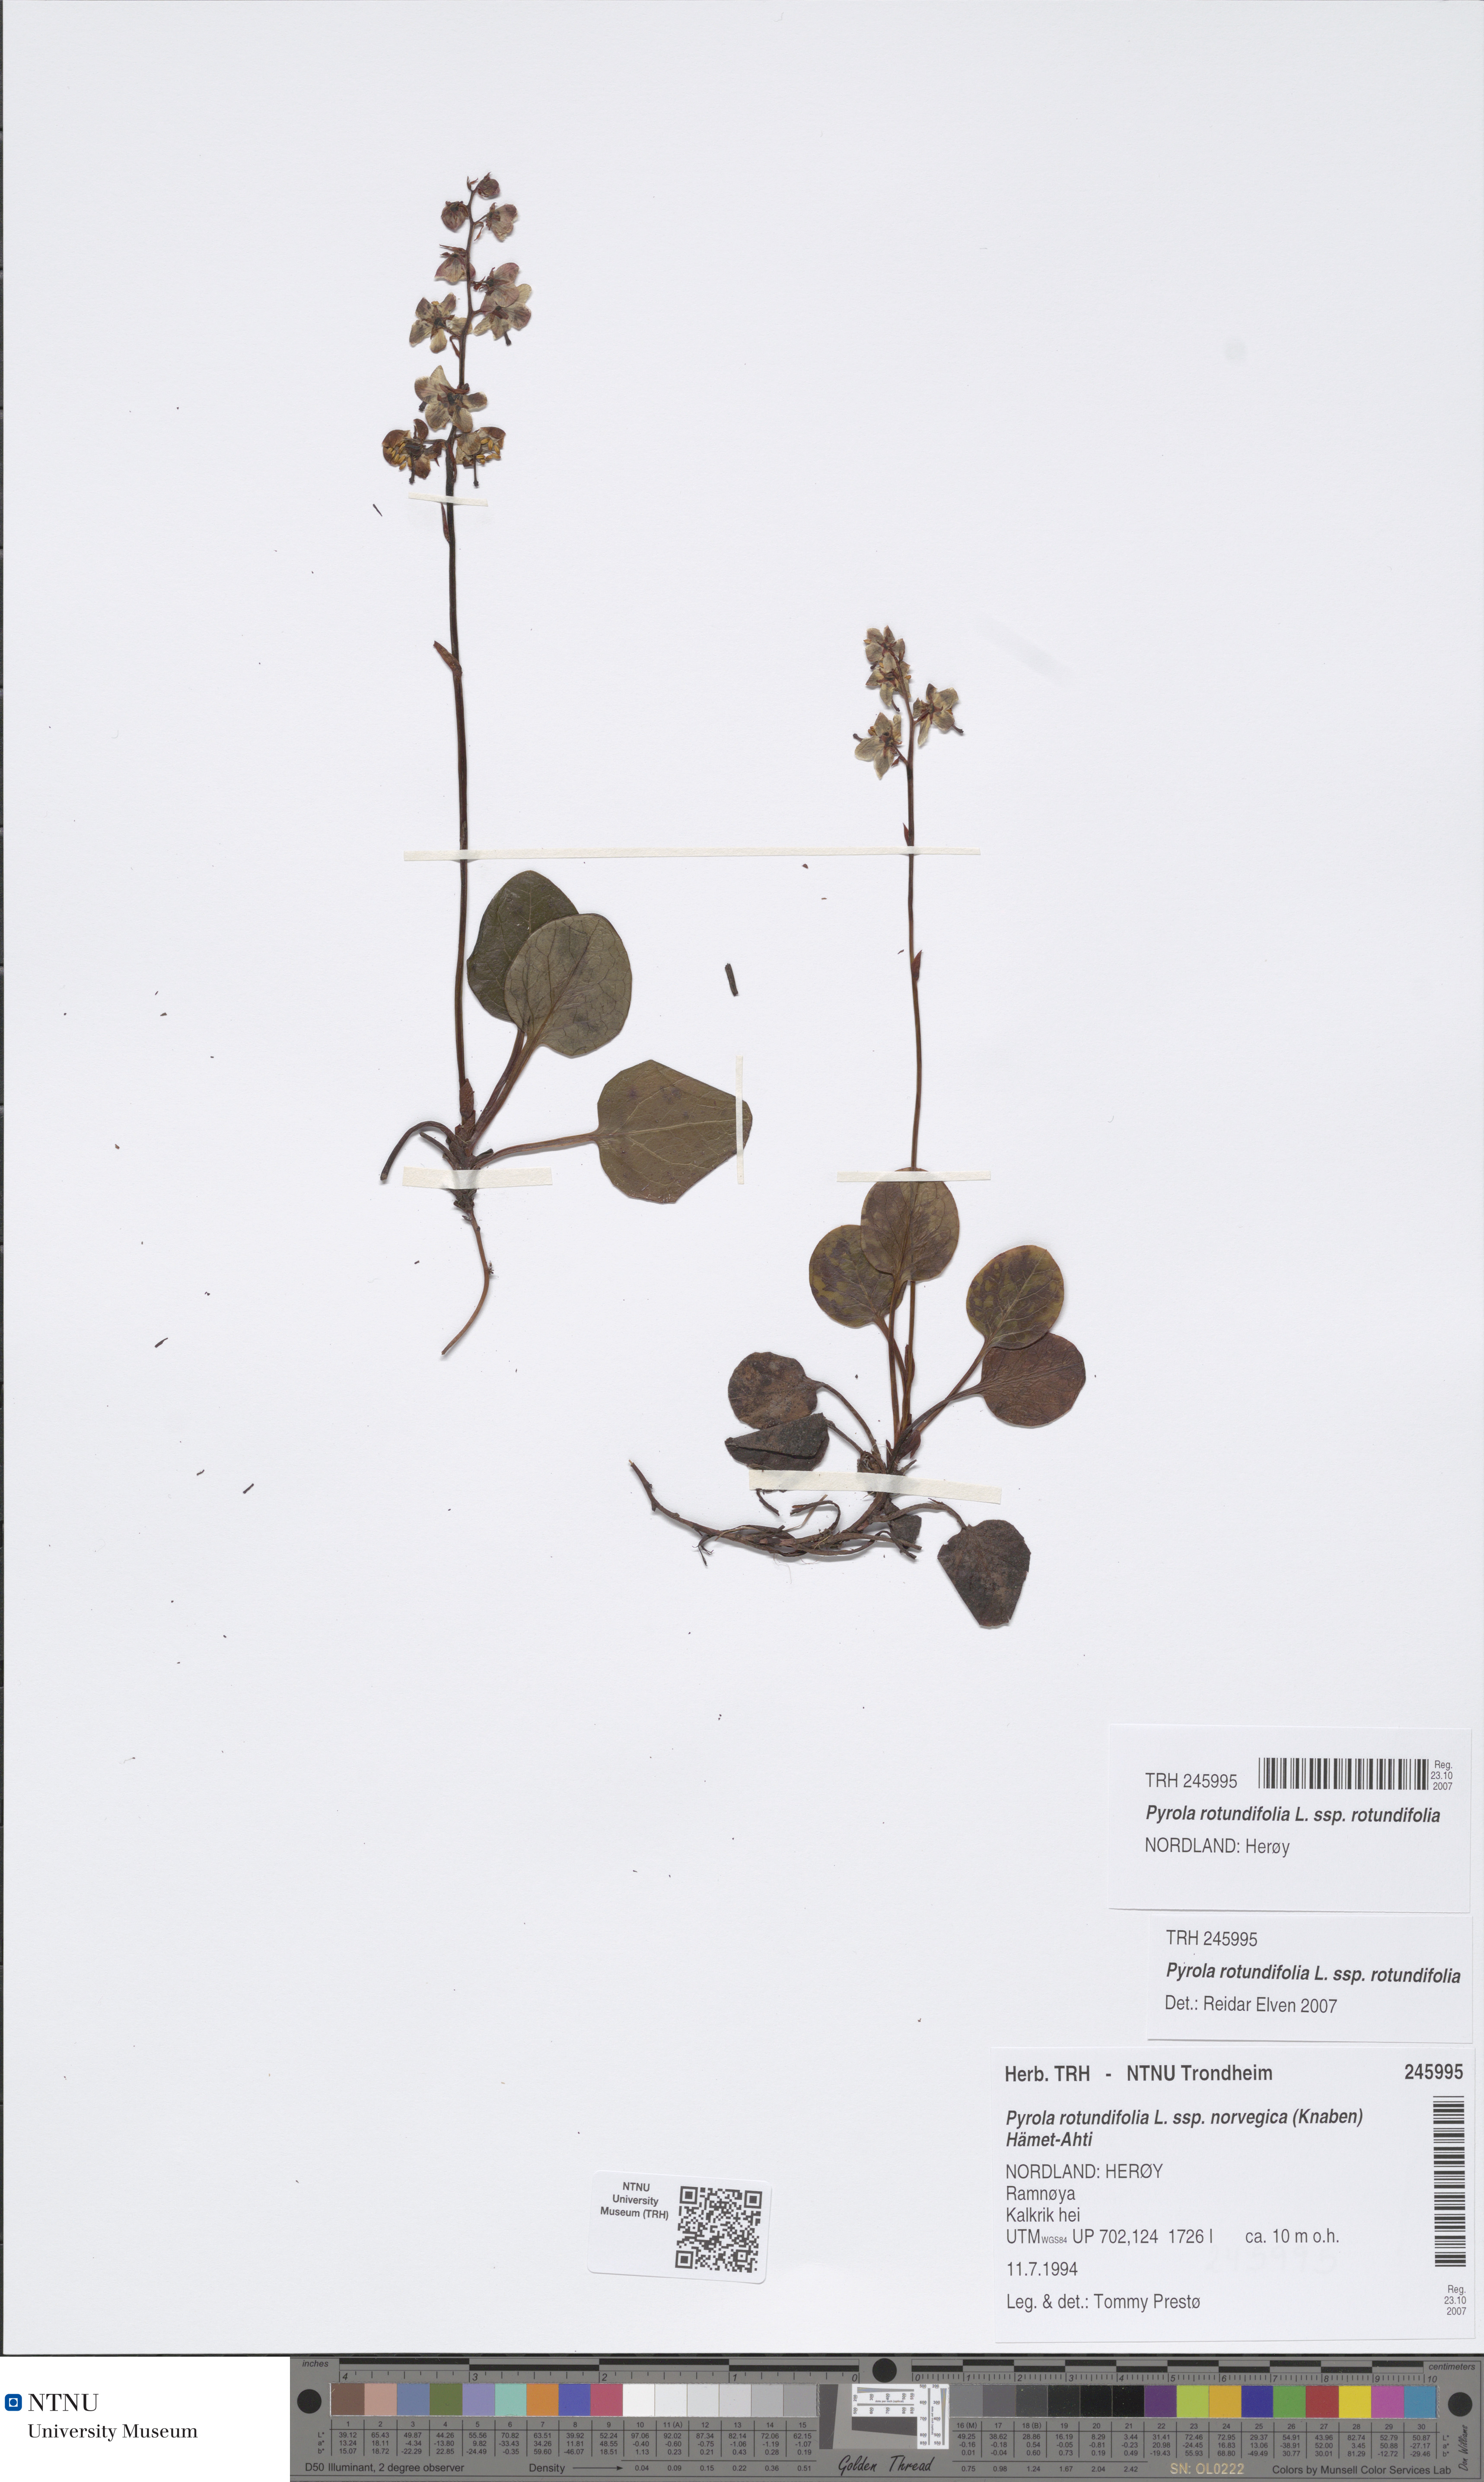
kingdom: Plantae
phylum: Tracheophyta
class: Magnoliopsida
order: Ericales
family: Ericaceae
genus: Pyrola
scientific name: Pyrola rotundifolia
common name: Round-leaved wintergreen
